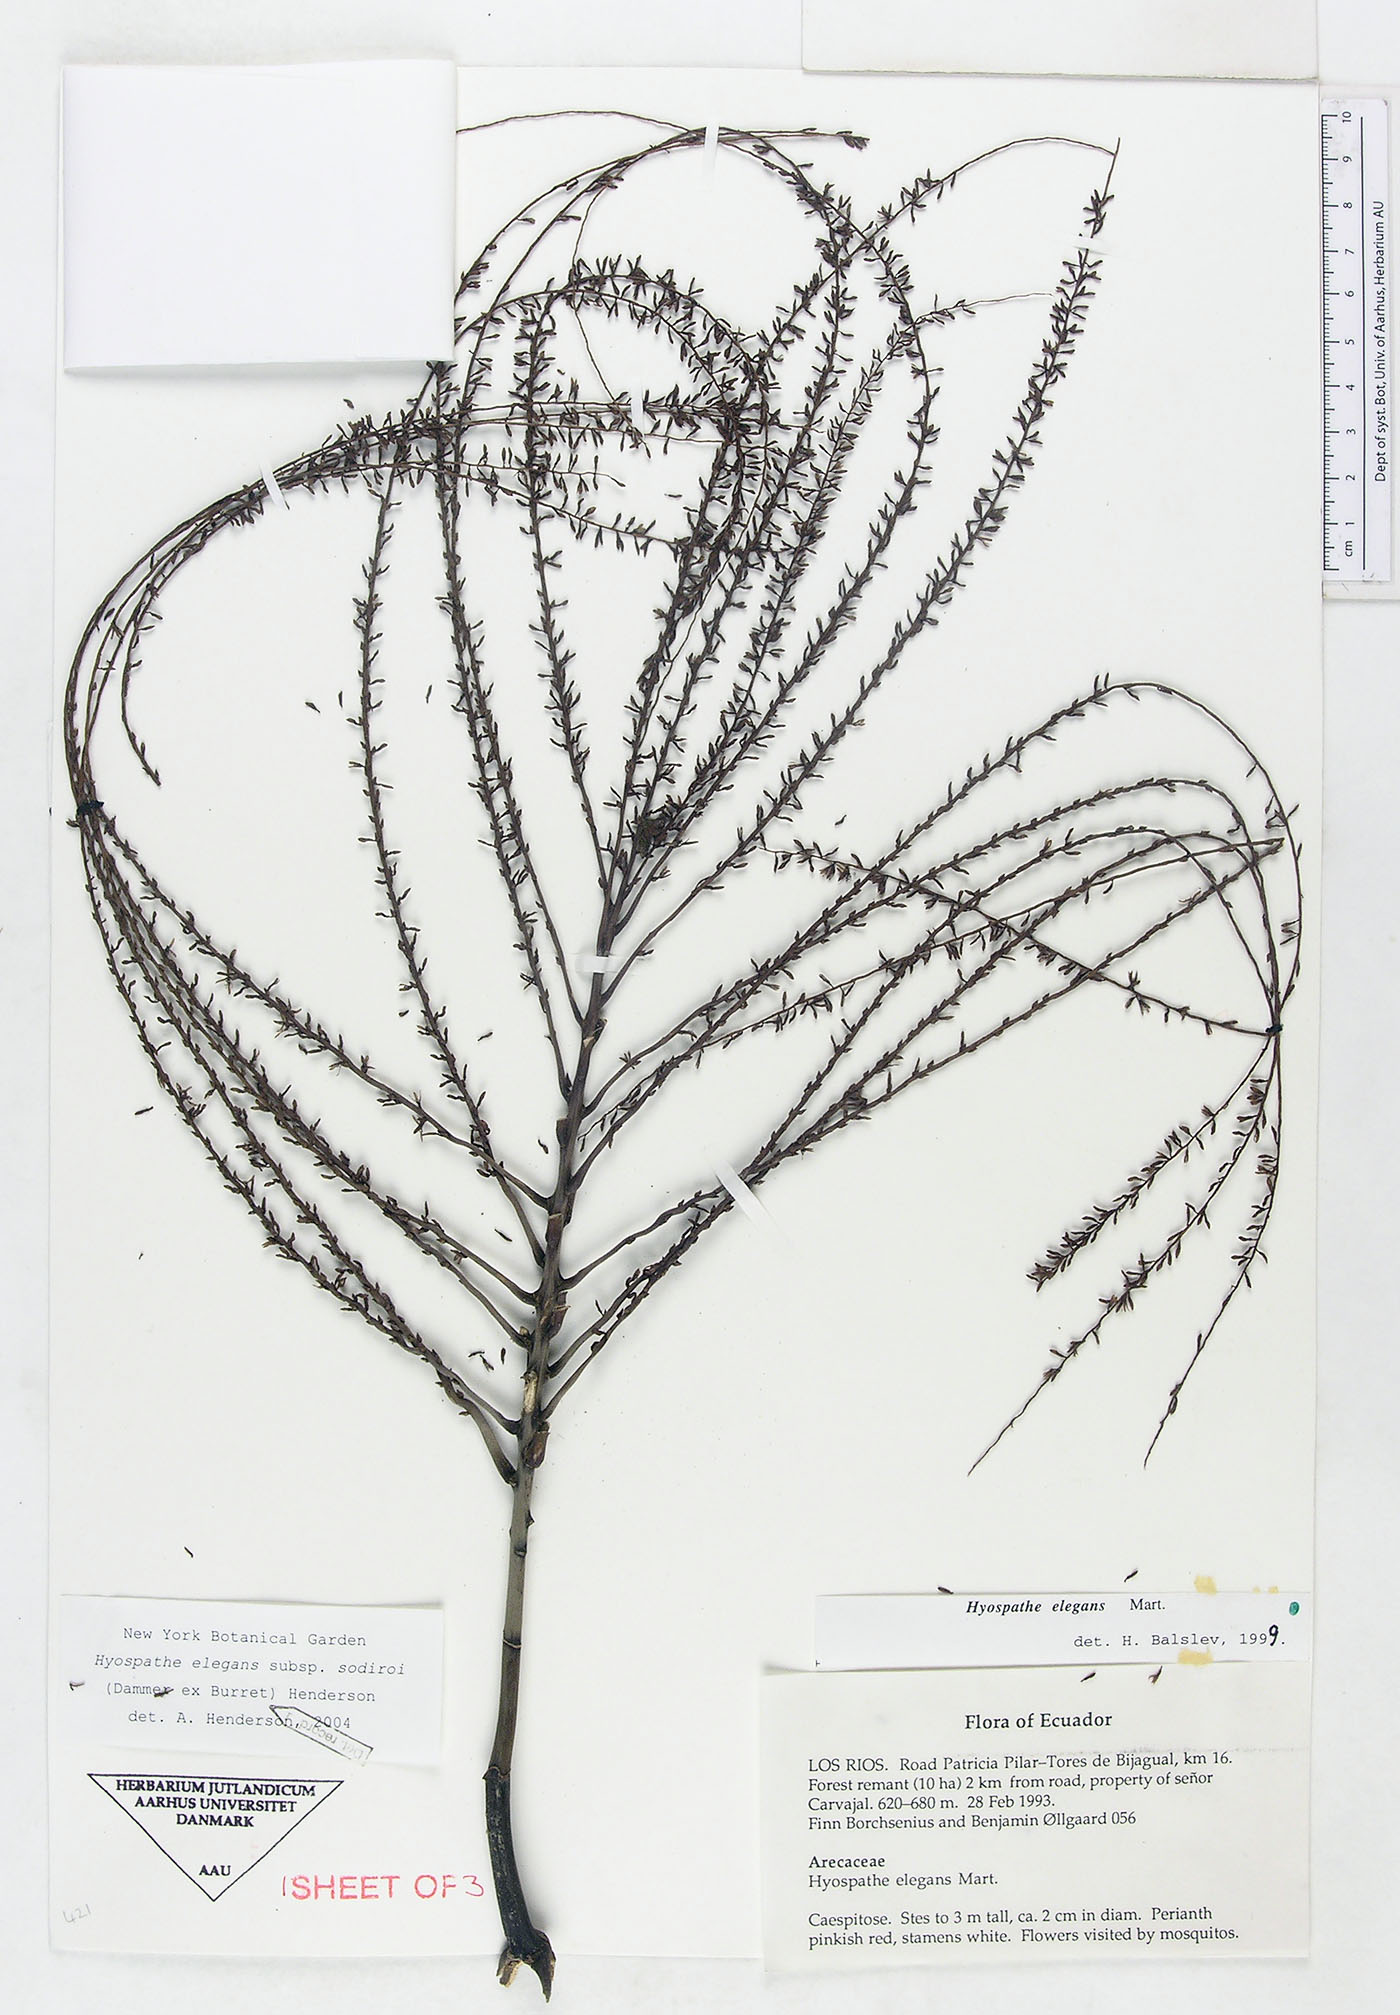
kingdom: Plantae
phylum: Tracheophyta
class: Liliopsida
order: Arecales
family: Arecaceae
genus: Hyospathe
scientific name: Hyospathe elegans
